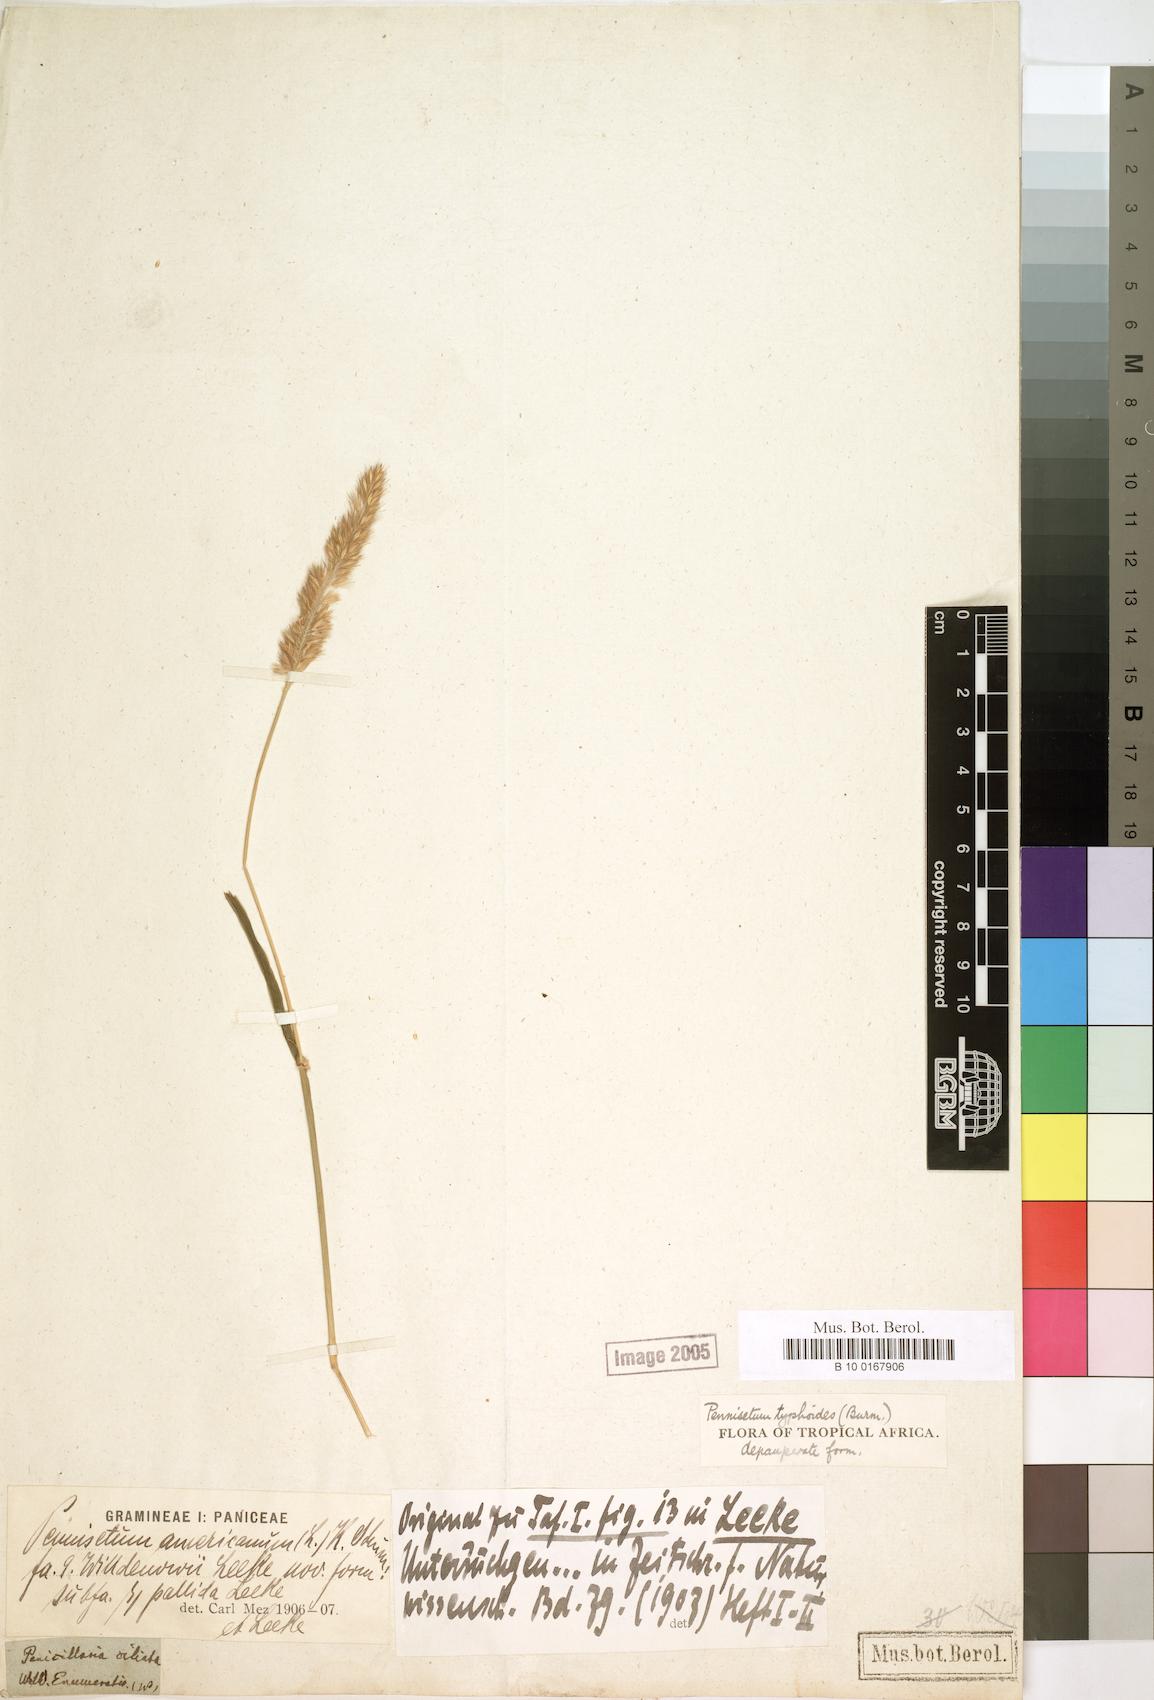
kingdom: Plantae
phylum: Tracheophyta
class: Liliopsida
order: Poales
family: Poaceae
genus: Cenchrus
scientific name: Cenchrus americanus
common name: Pearl millet
